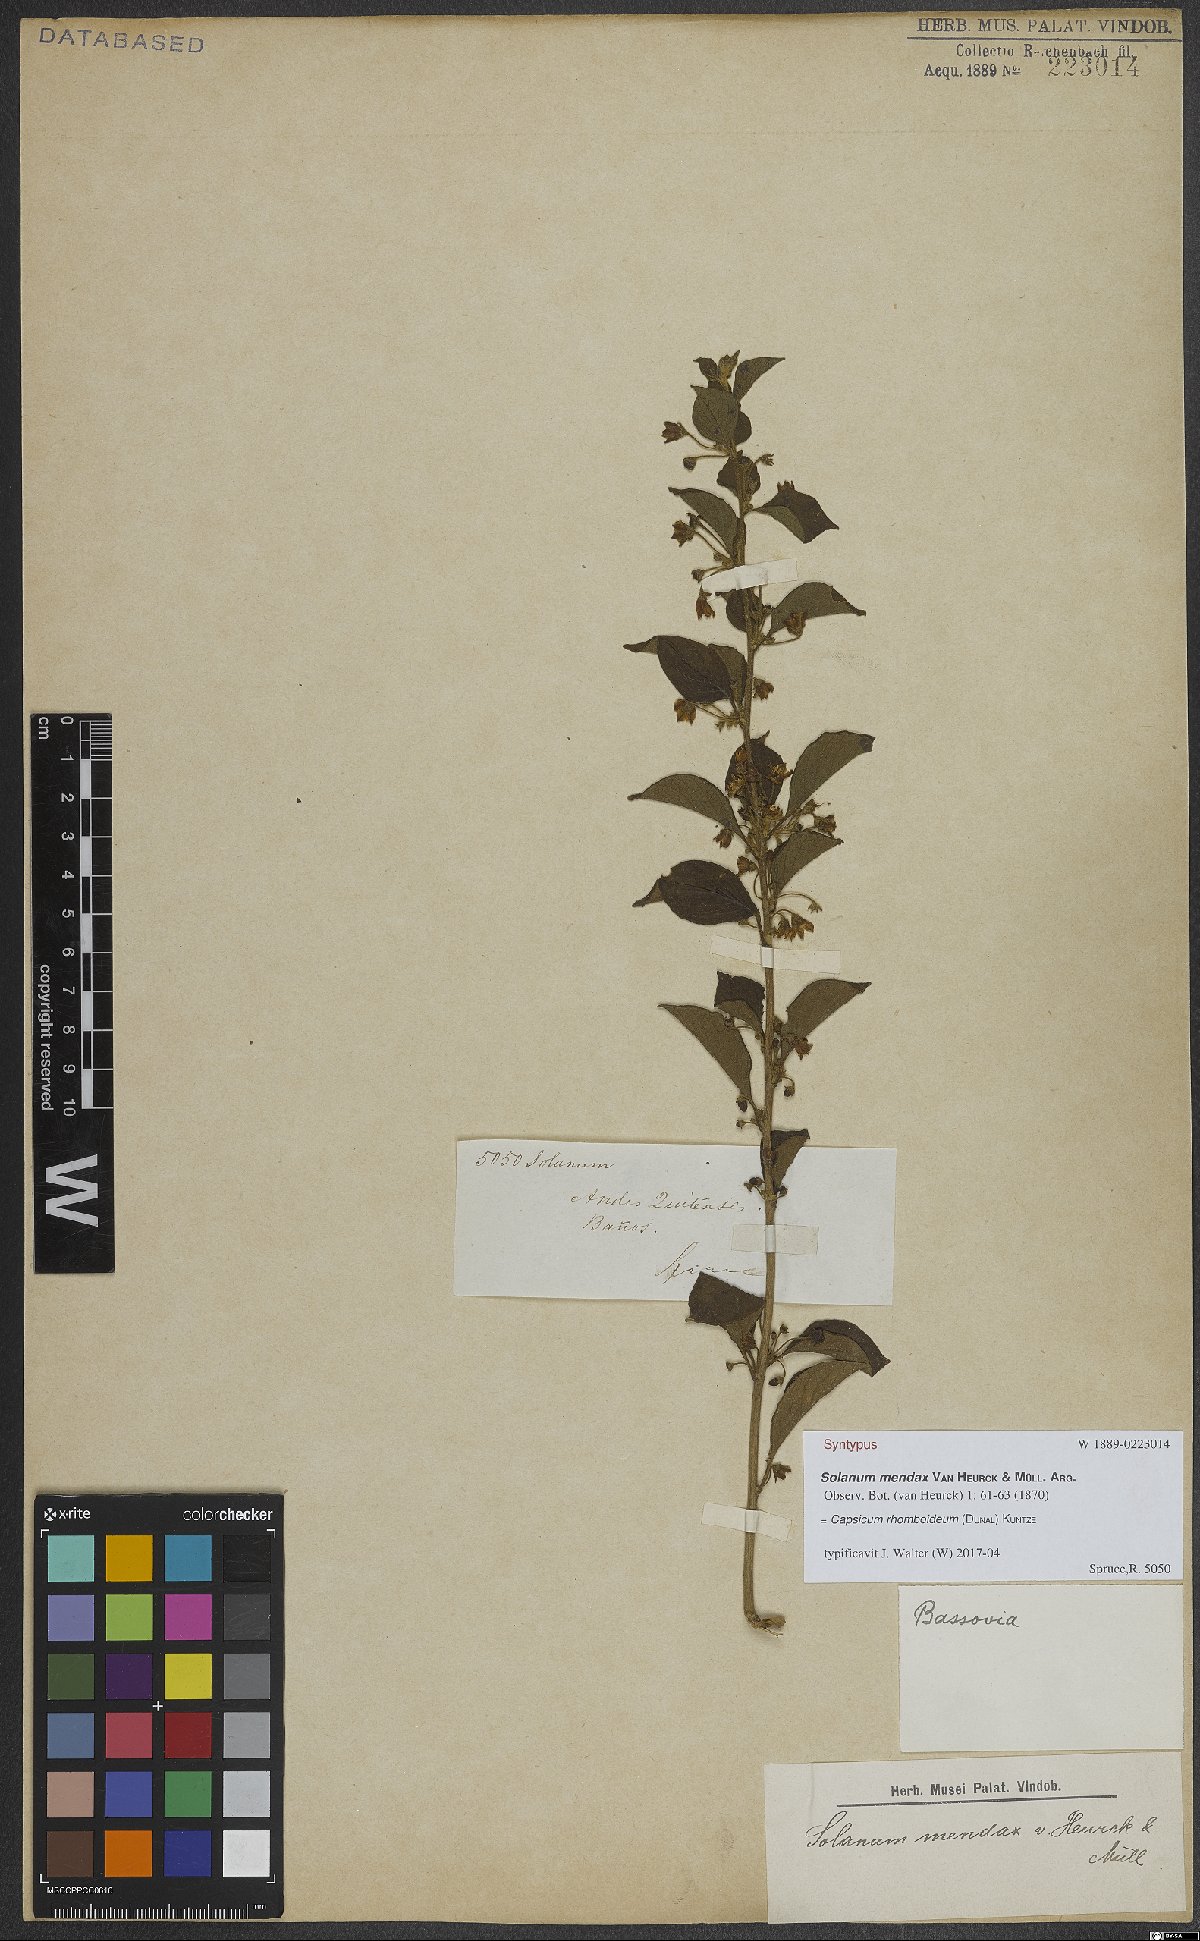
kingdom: Plantae
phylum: Tracheophyta
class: Magnoliopsida
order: Solanales
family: Solanaceae
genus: Capsicum
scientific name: Capsicum rhomboideum
